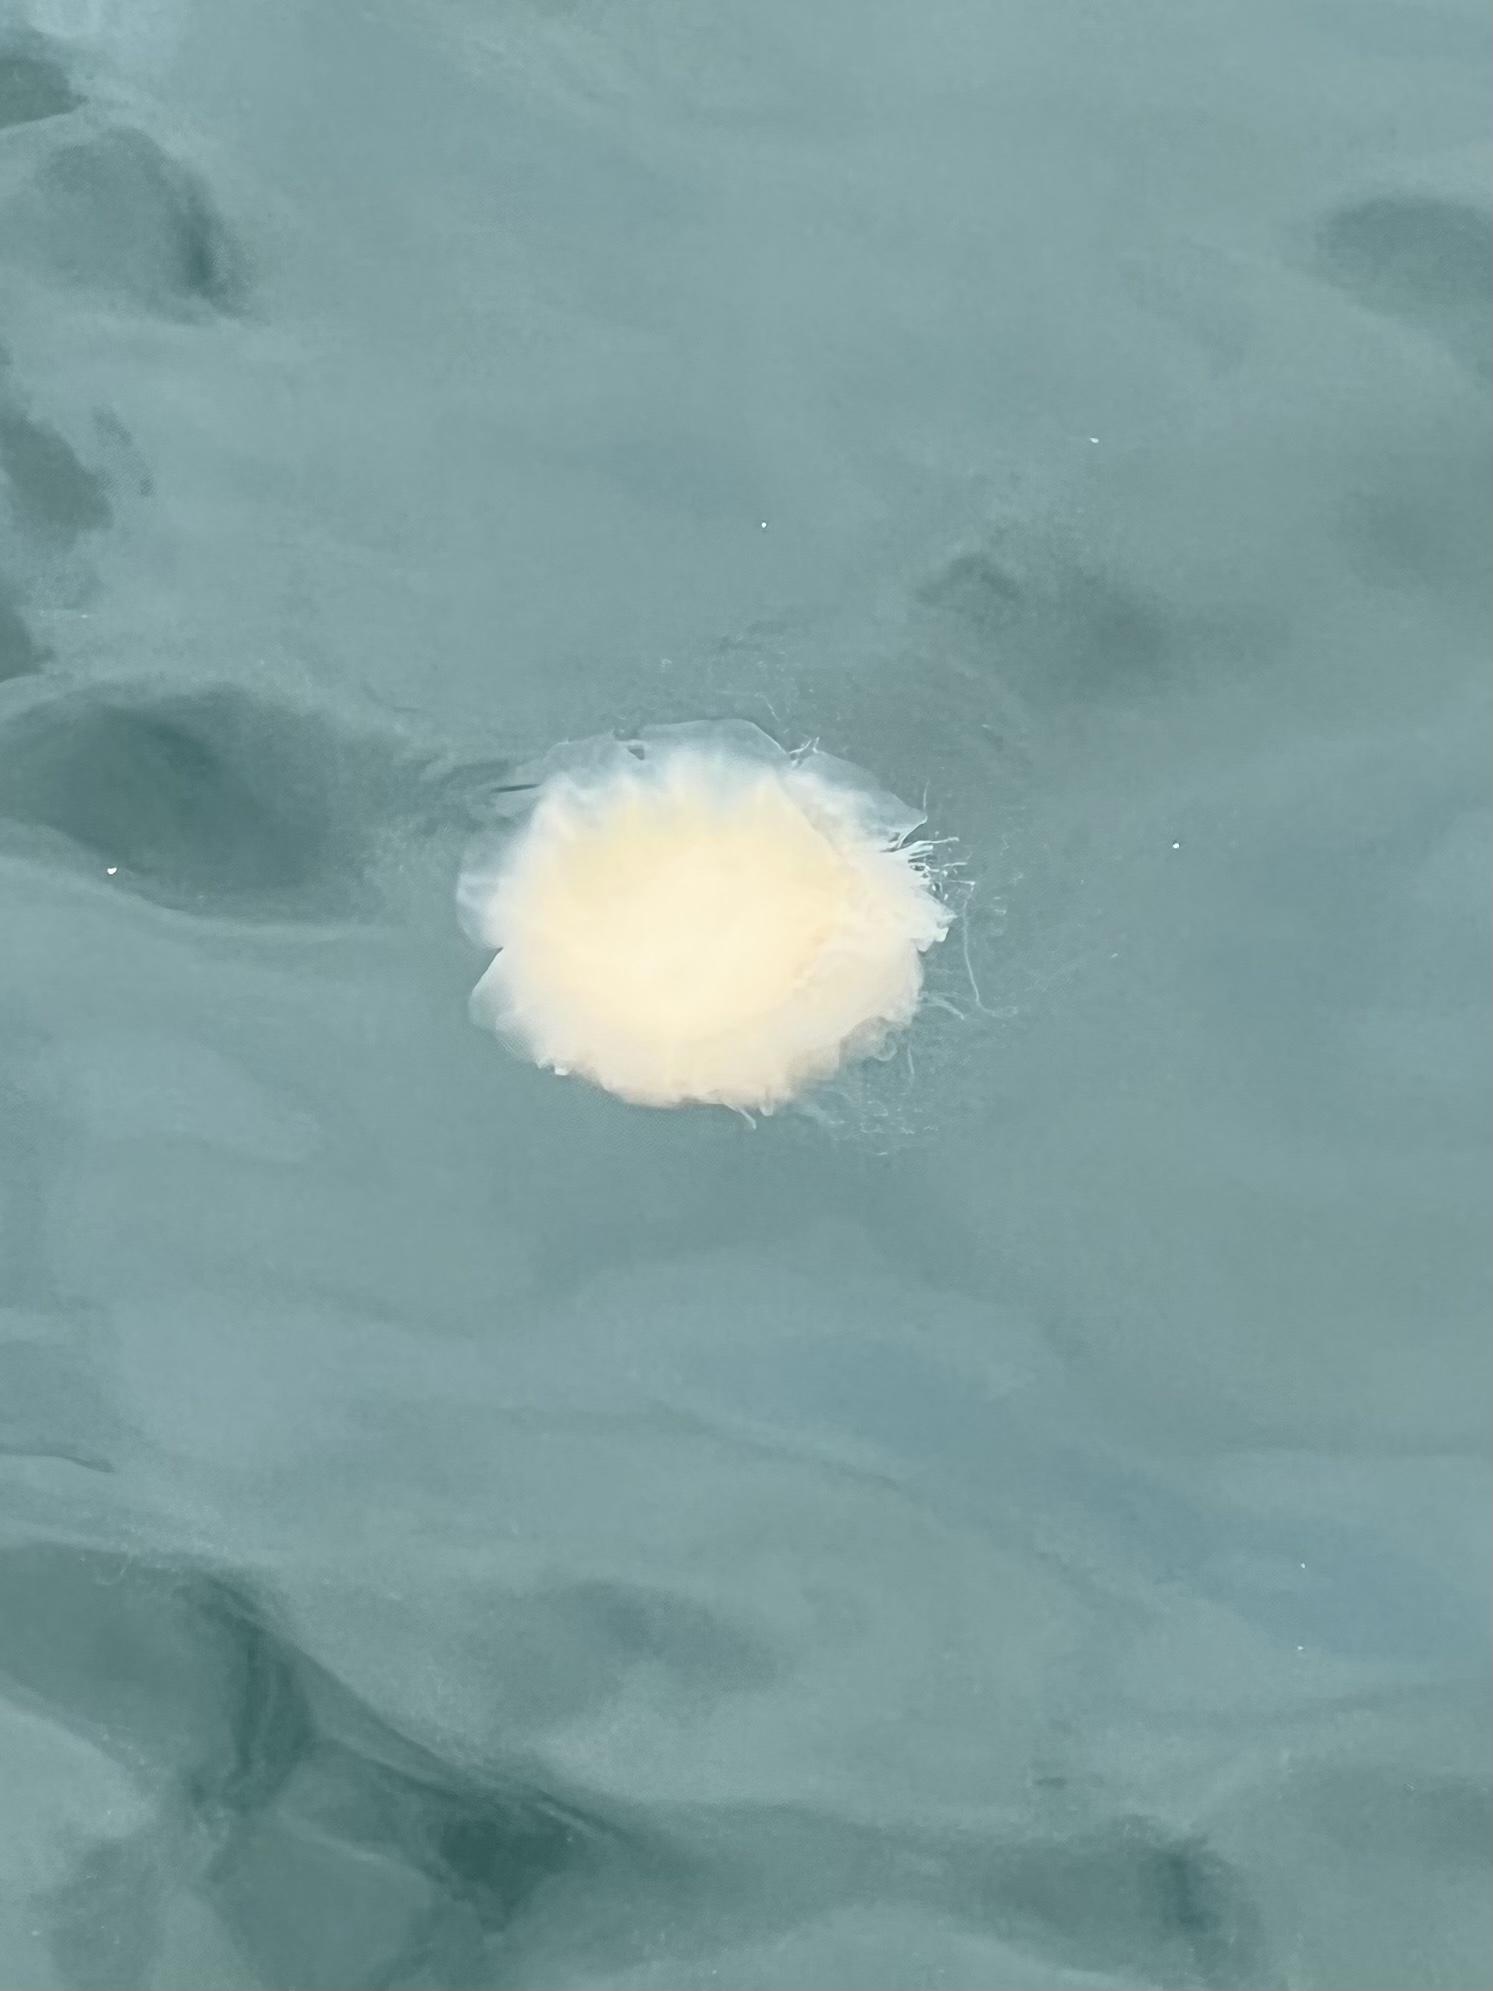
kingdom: Animalia
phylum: Cnidaria
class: Scyphozoa
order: Semaeostomeae
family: Cyaneidae
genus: Cyanea
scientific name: Cyanea nozakii
